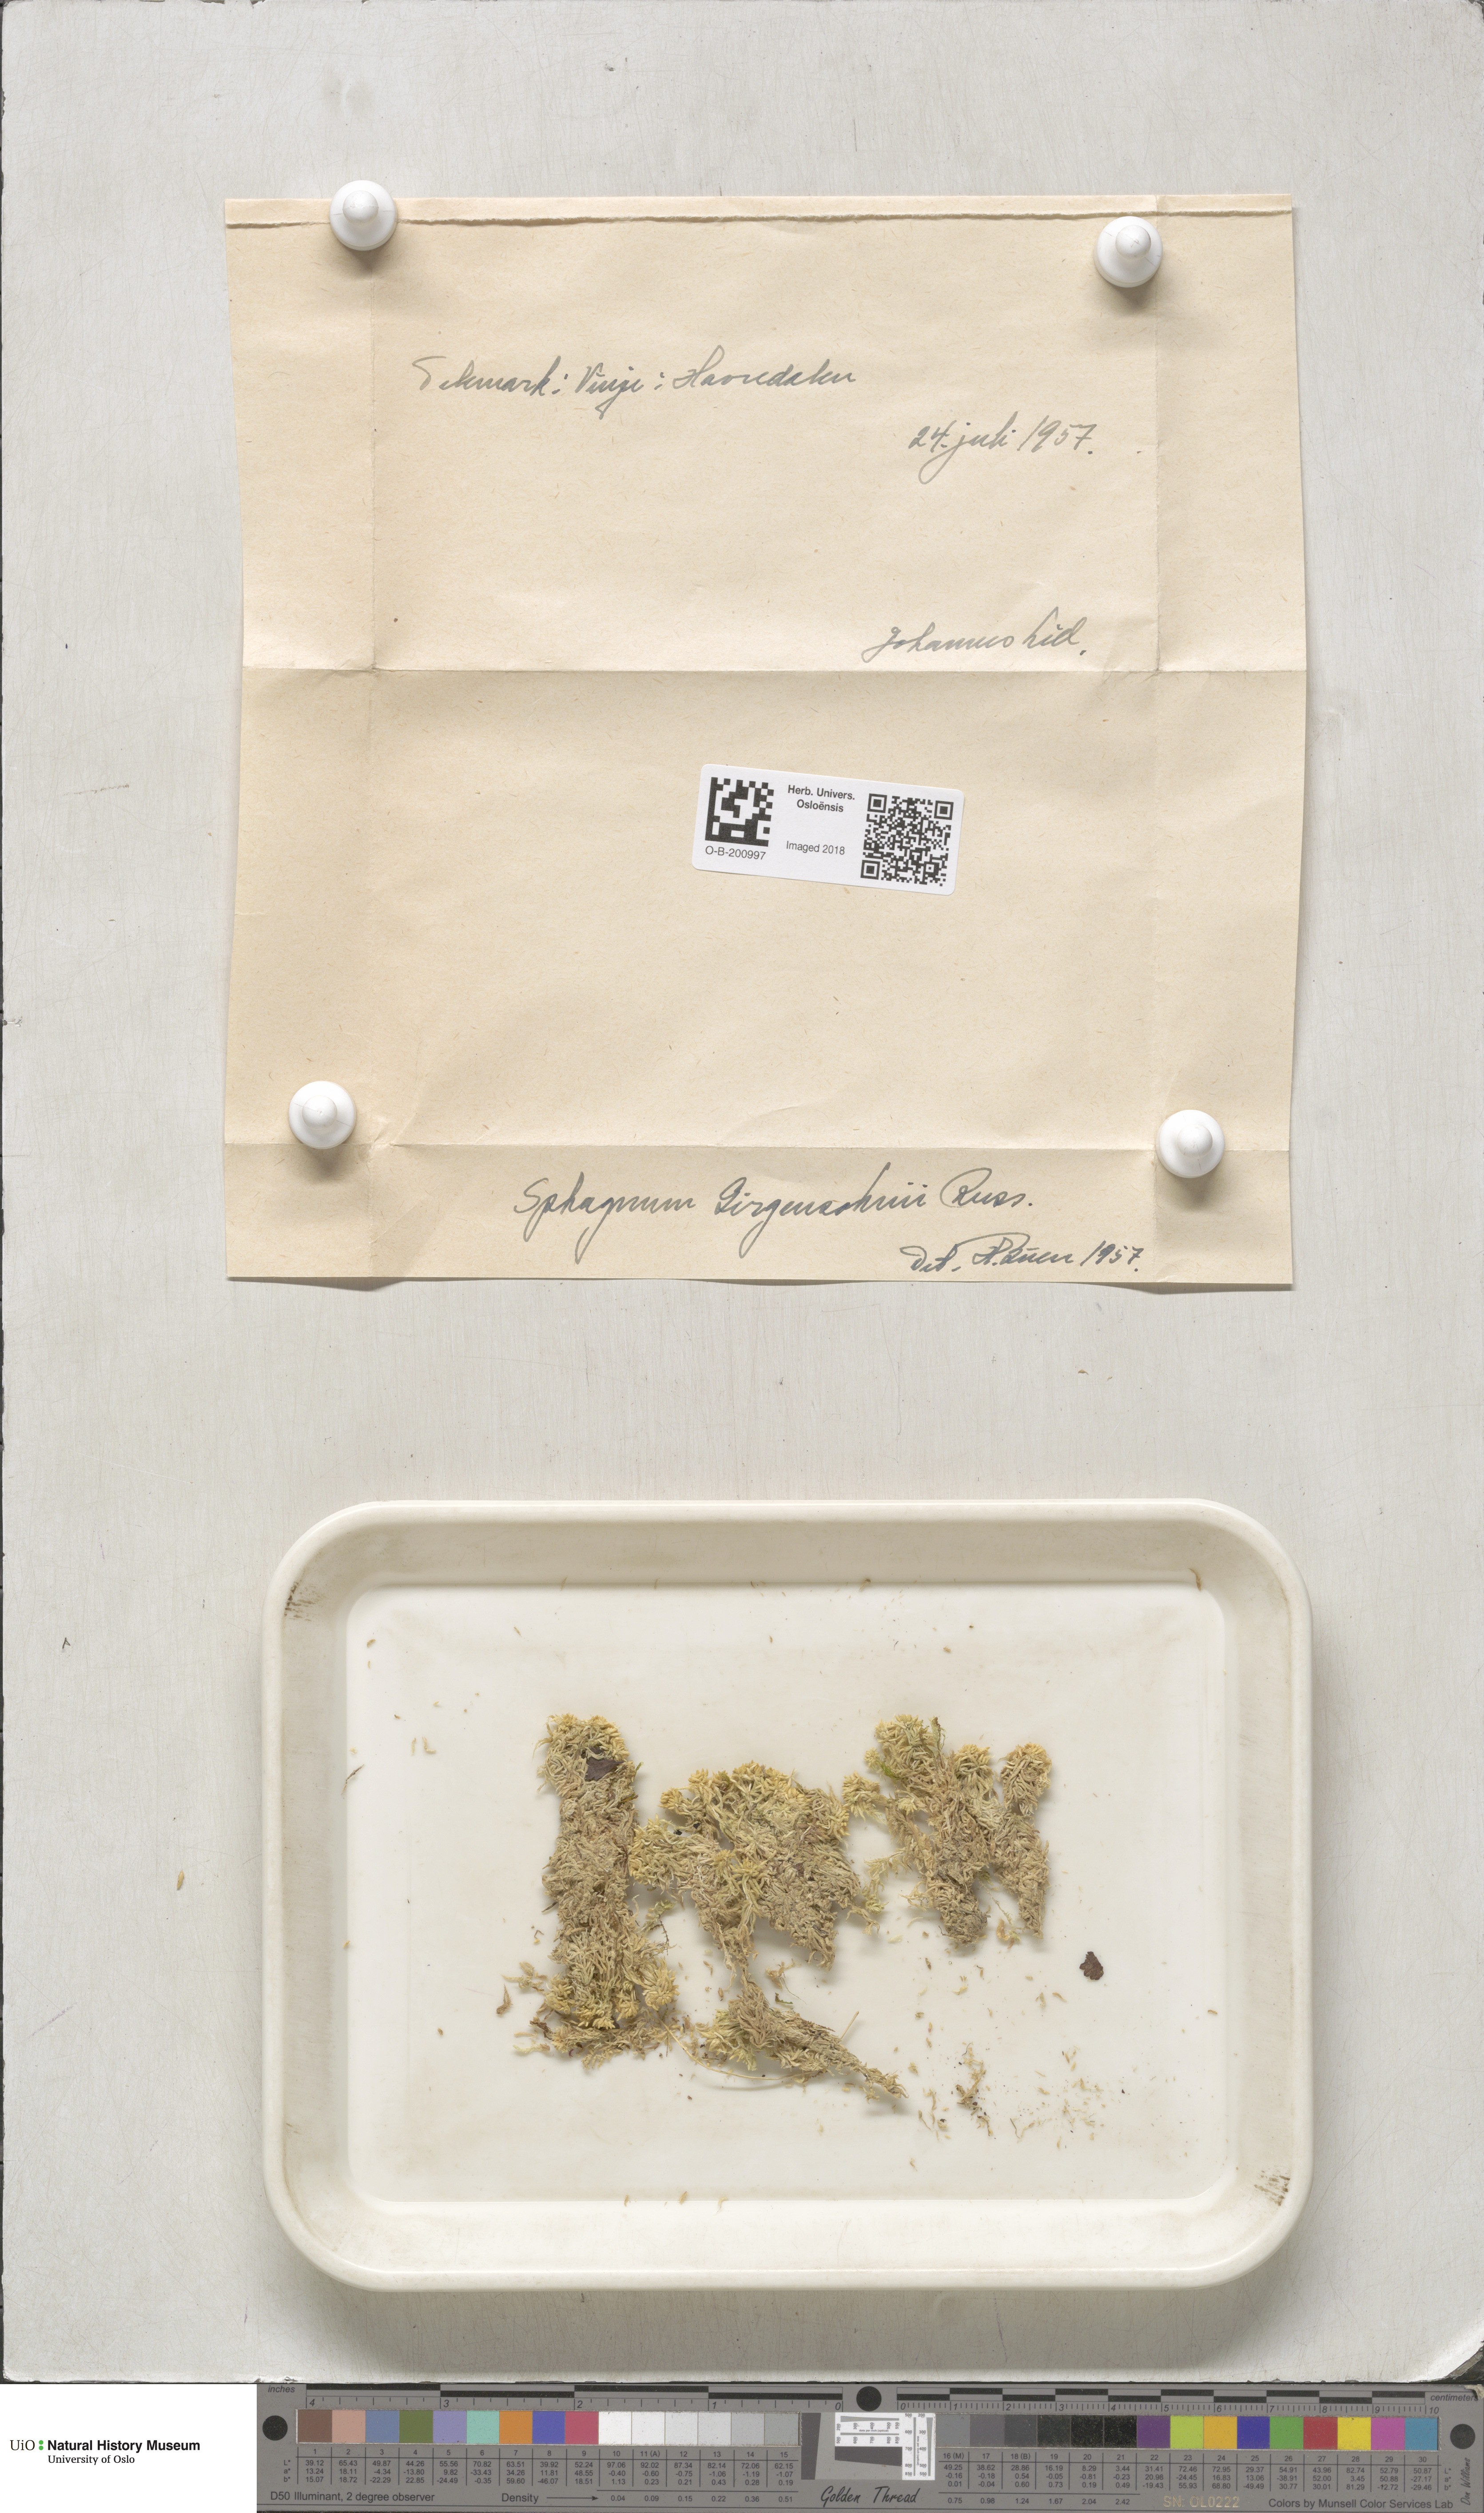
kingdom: Plantae
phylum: Bryophyta
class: Sphagnopsida
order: Sphagnales
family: Sphagnaceae
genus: Sphagnum
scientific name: Sphagnum girgensohnii
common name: Girgensohn's peat moss
